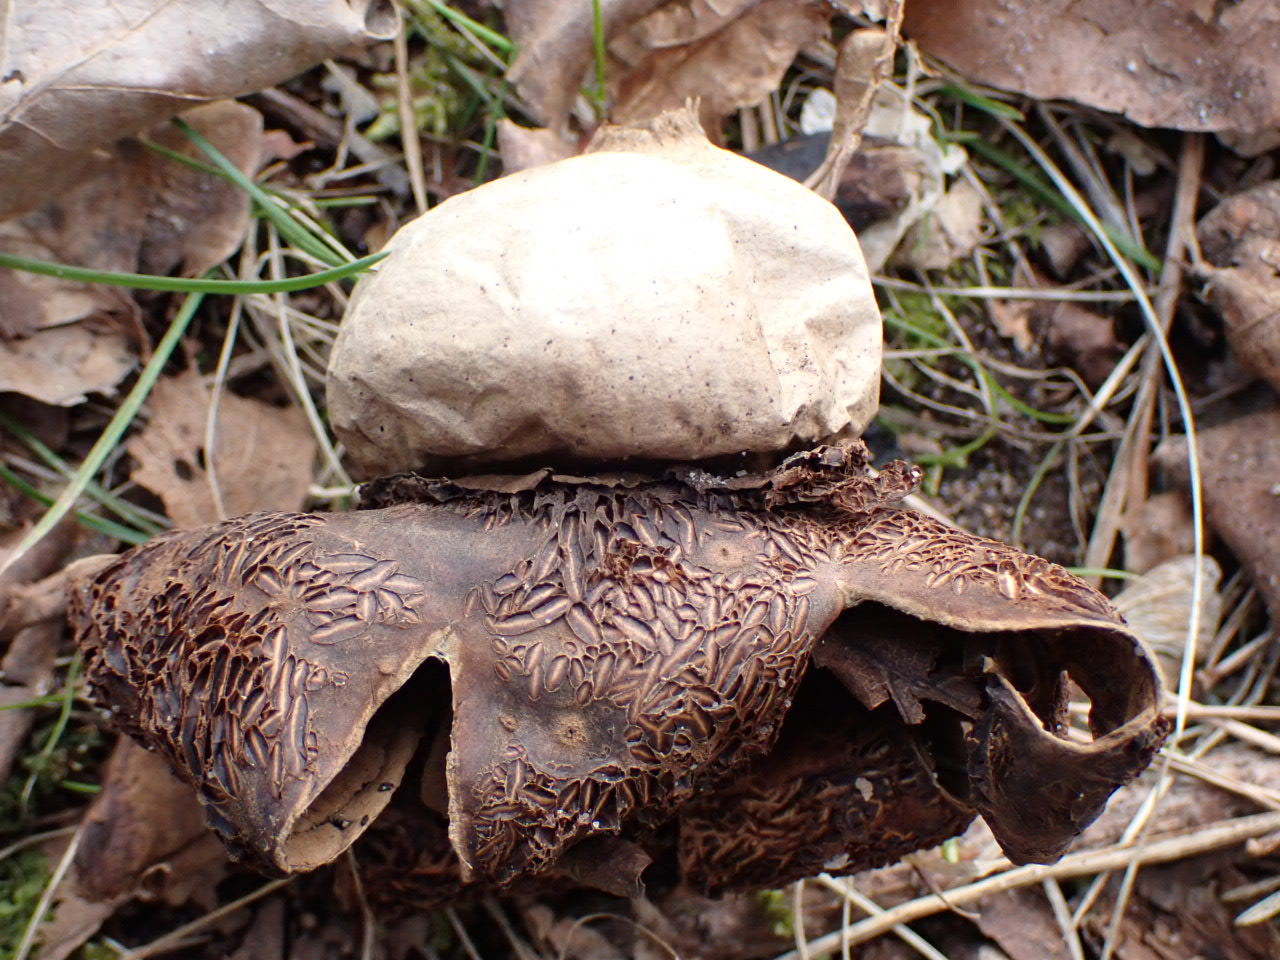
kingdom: Fungi
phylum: Basidiomycota
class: Agaricomycetes
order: Geastrales
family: Geastraceae
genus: Geastrum
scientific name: Geastrum michelianum
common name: kødet stjernebold
